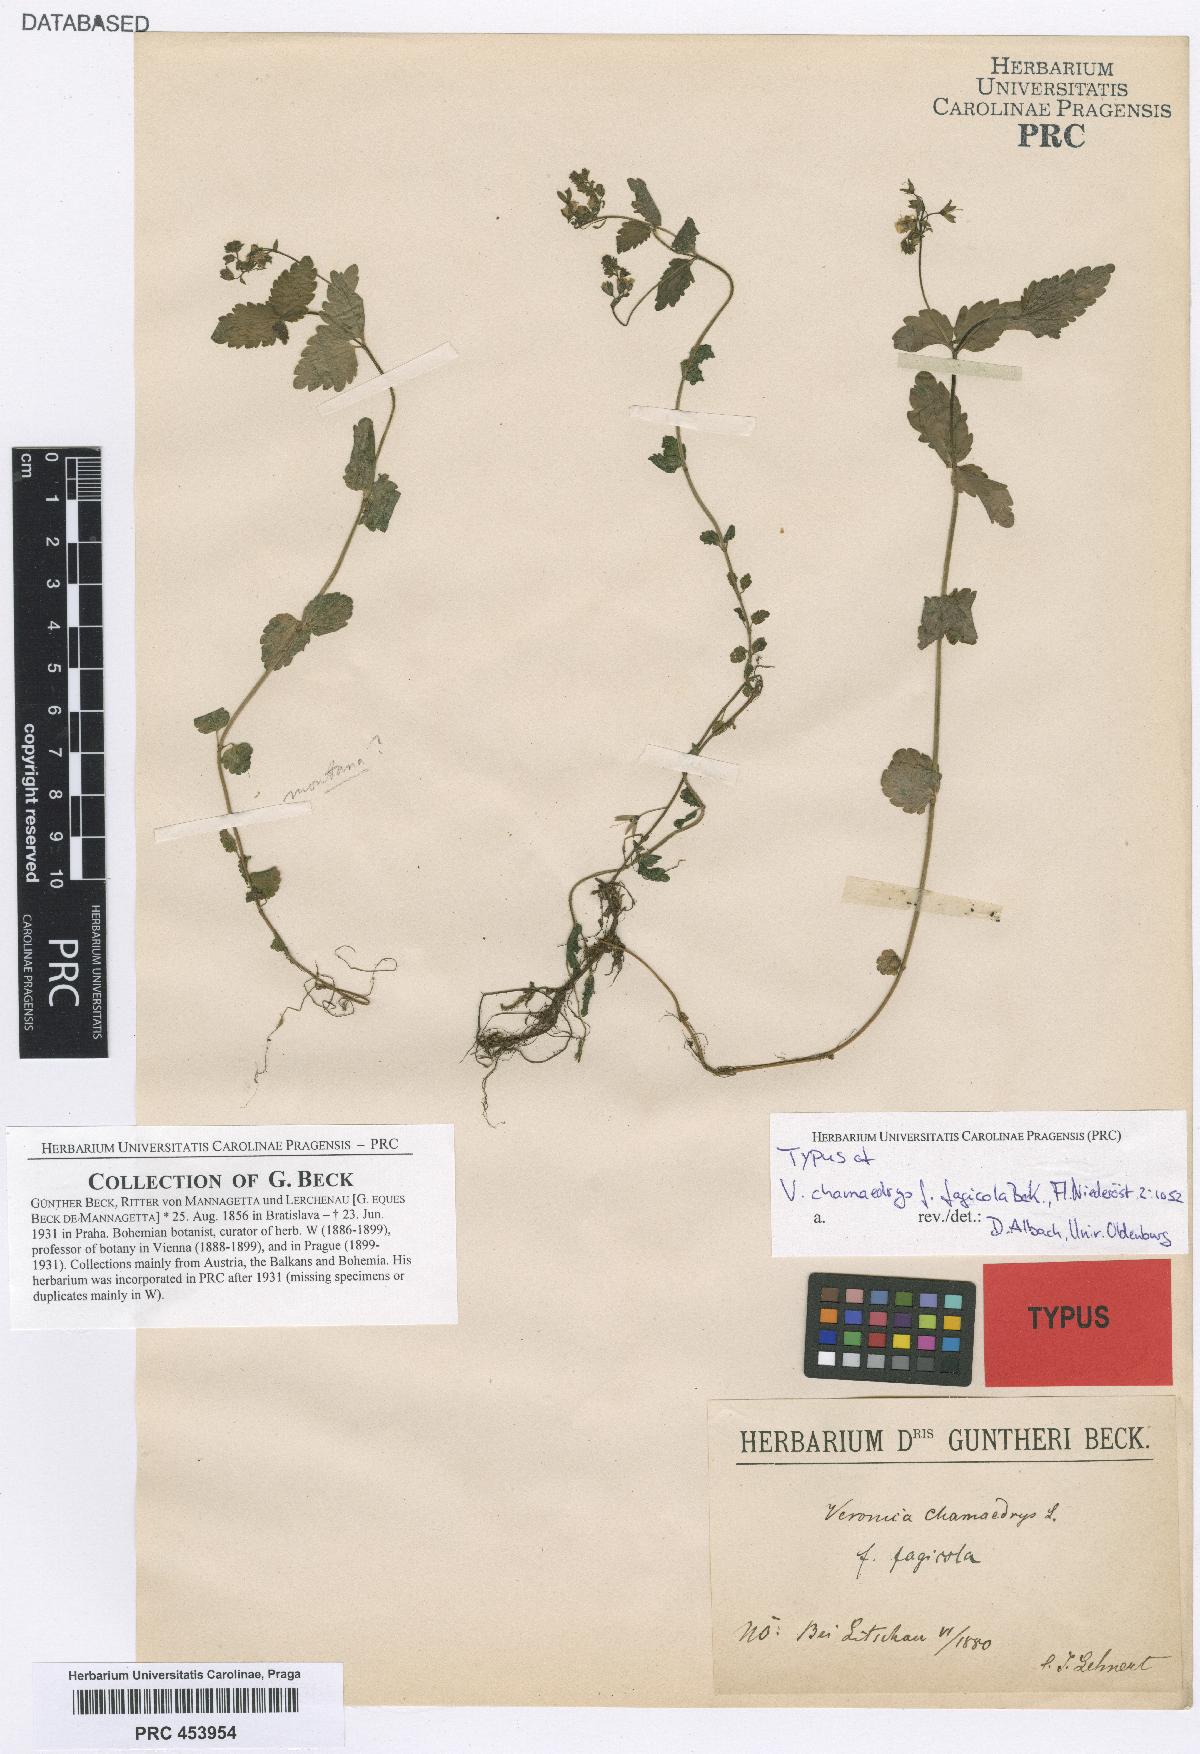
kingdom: Plantae
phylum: Tracheophyta
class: Magnoliopsida
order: Lamiales
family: Plantaginaceae
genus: Veronica
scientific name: Veronica chamaedrys
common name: Germander speedwell
